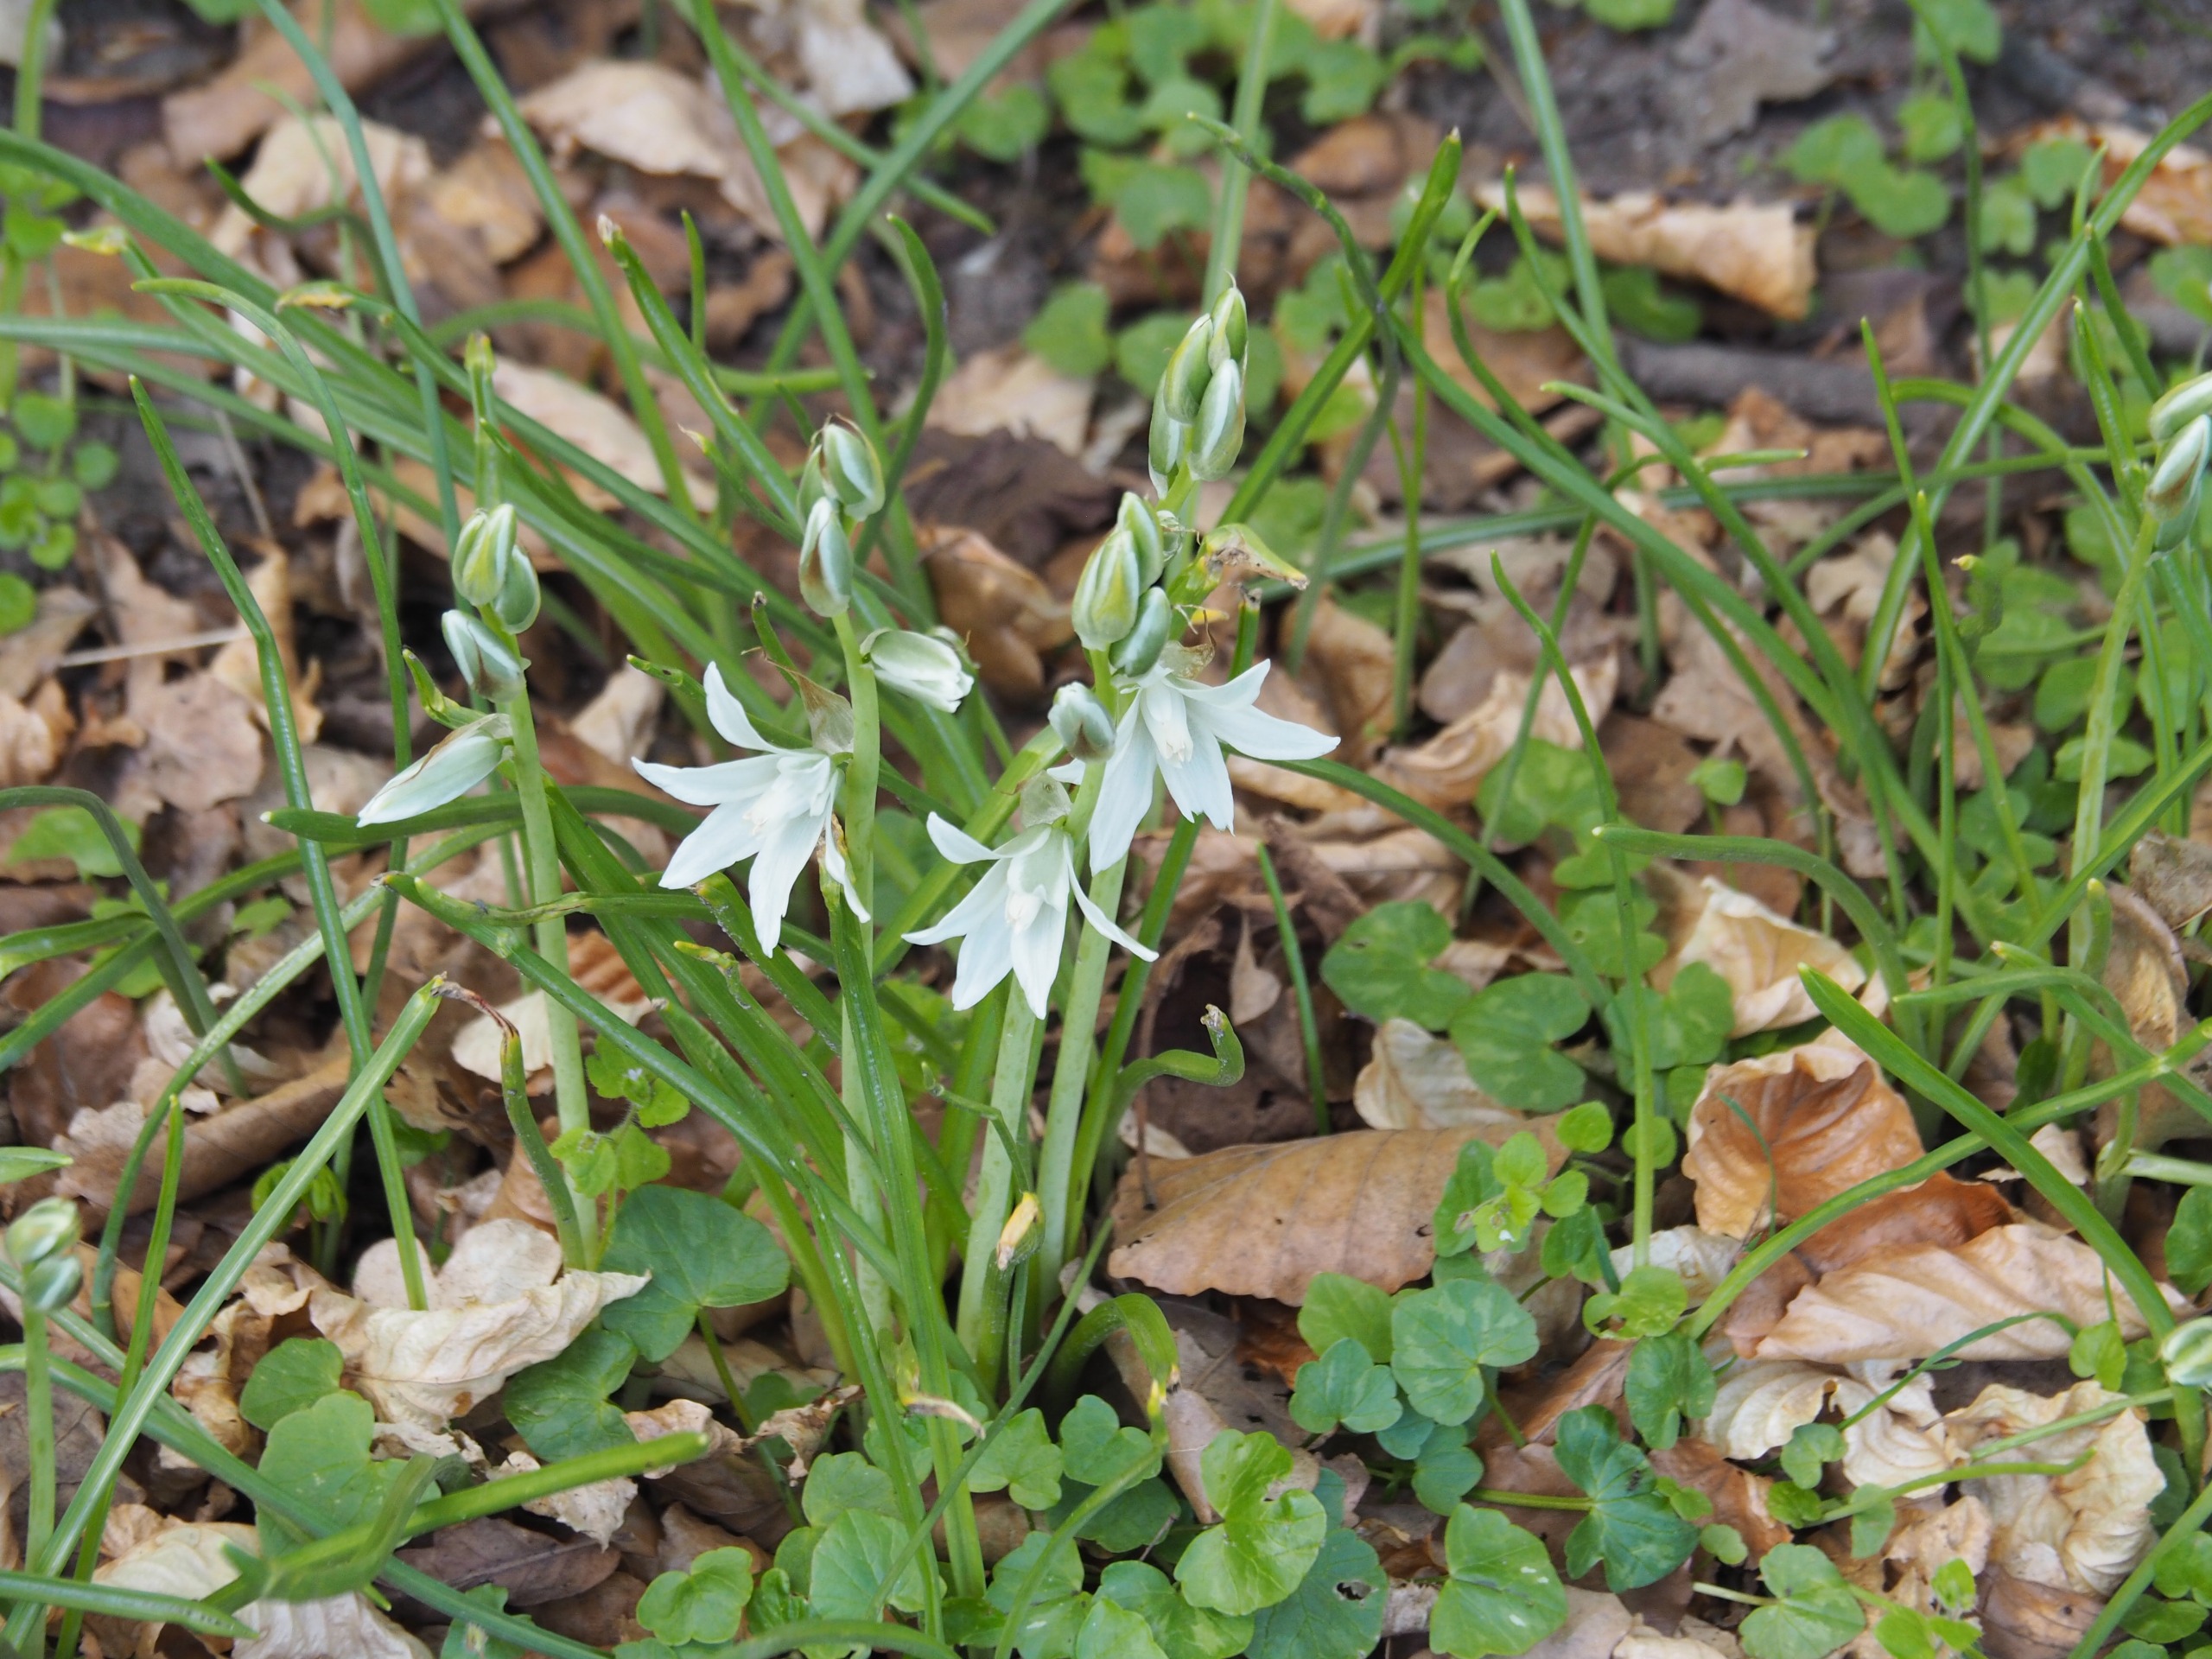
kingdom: Plantae
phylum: Tracheophyta
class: Liliopsida
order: Asparagales
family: Asparagaceae
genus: Ornithogalum
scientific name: Ornithogalum nutans
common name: Nikkende fuglemælk
